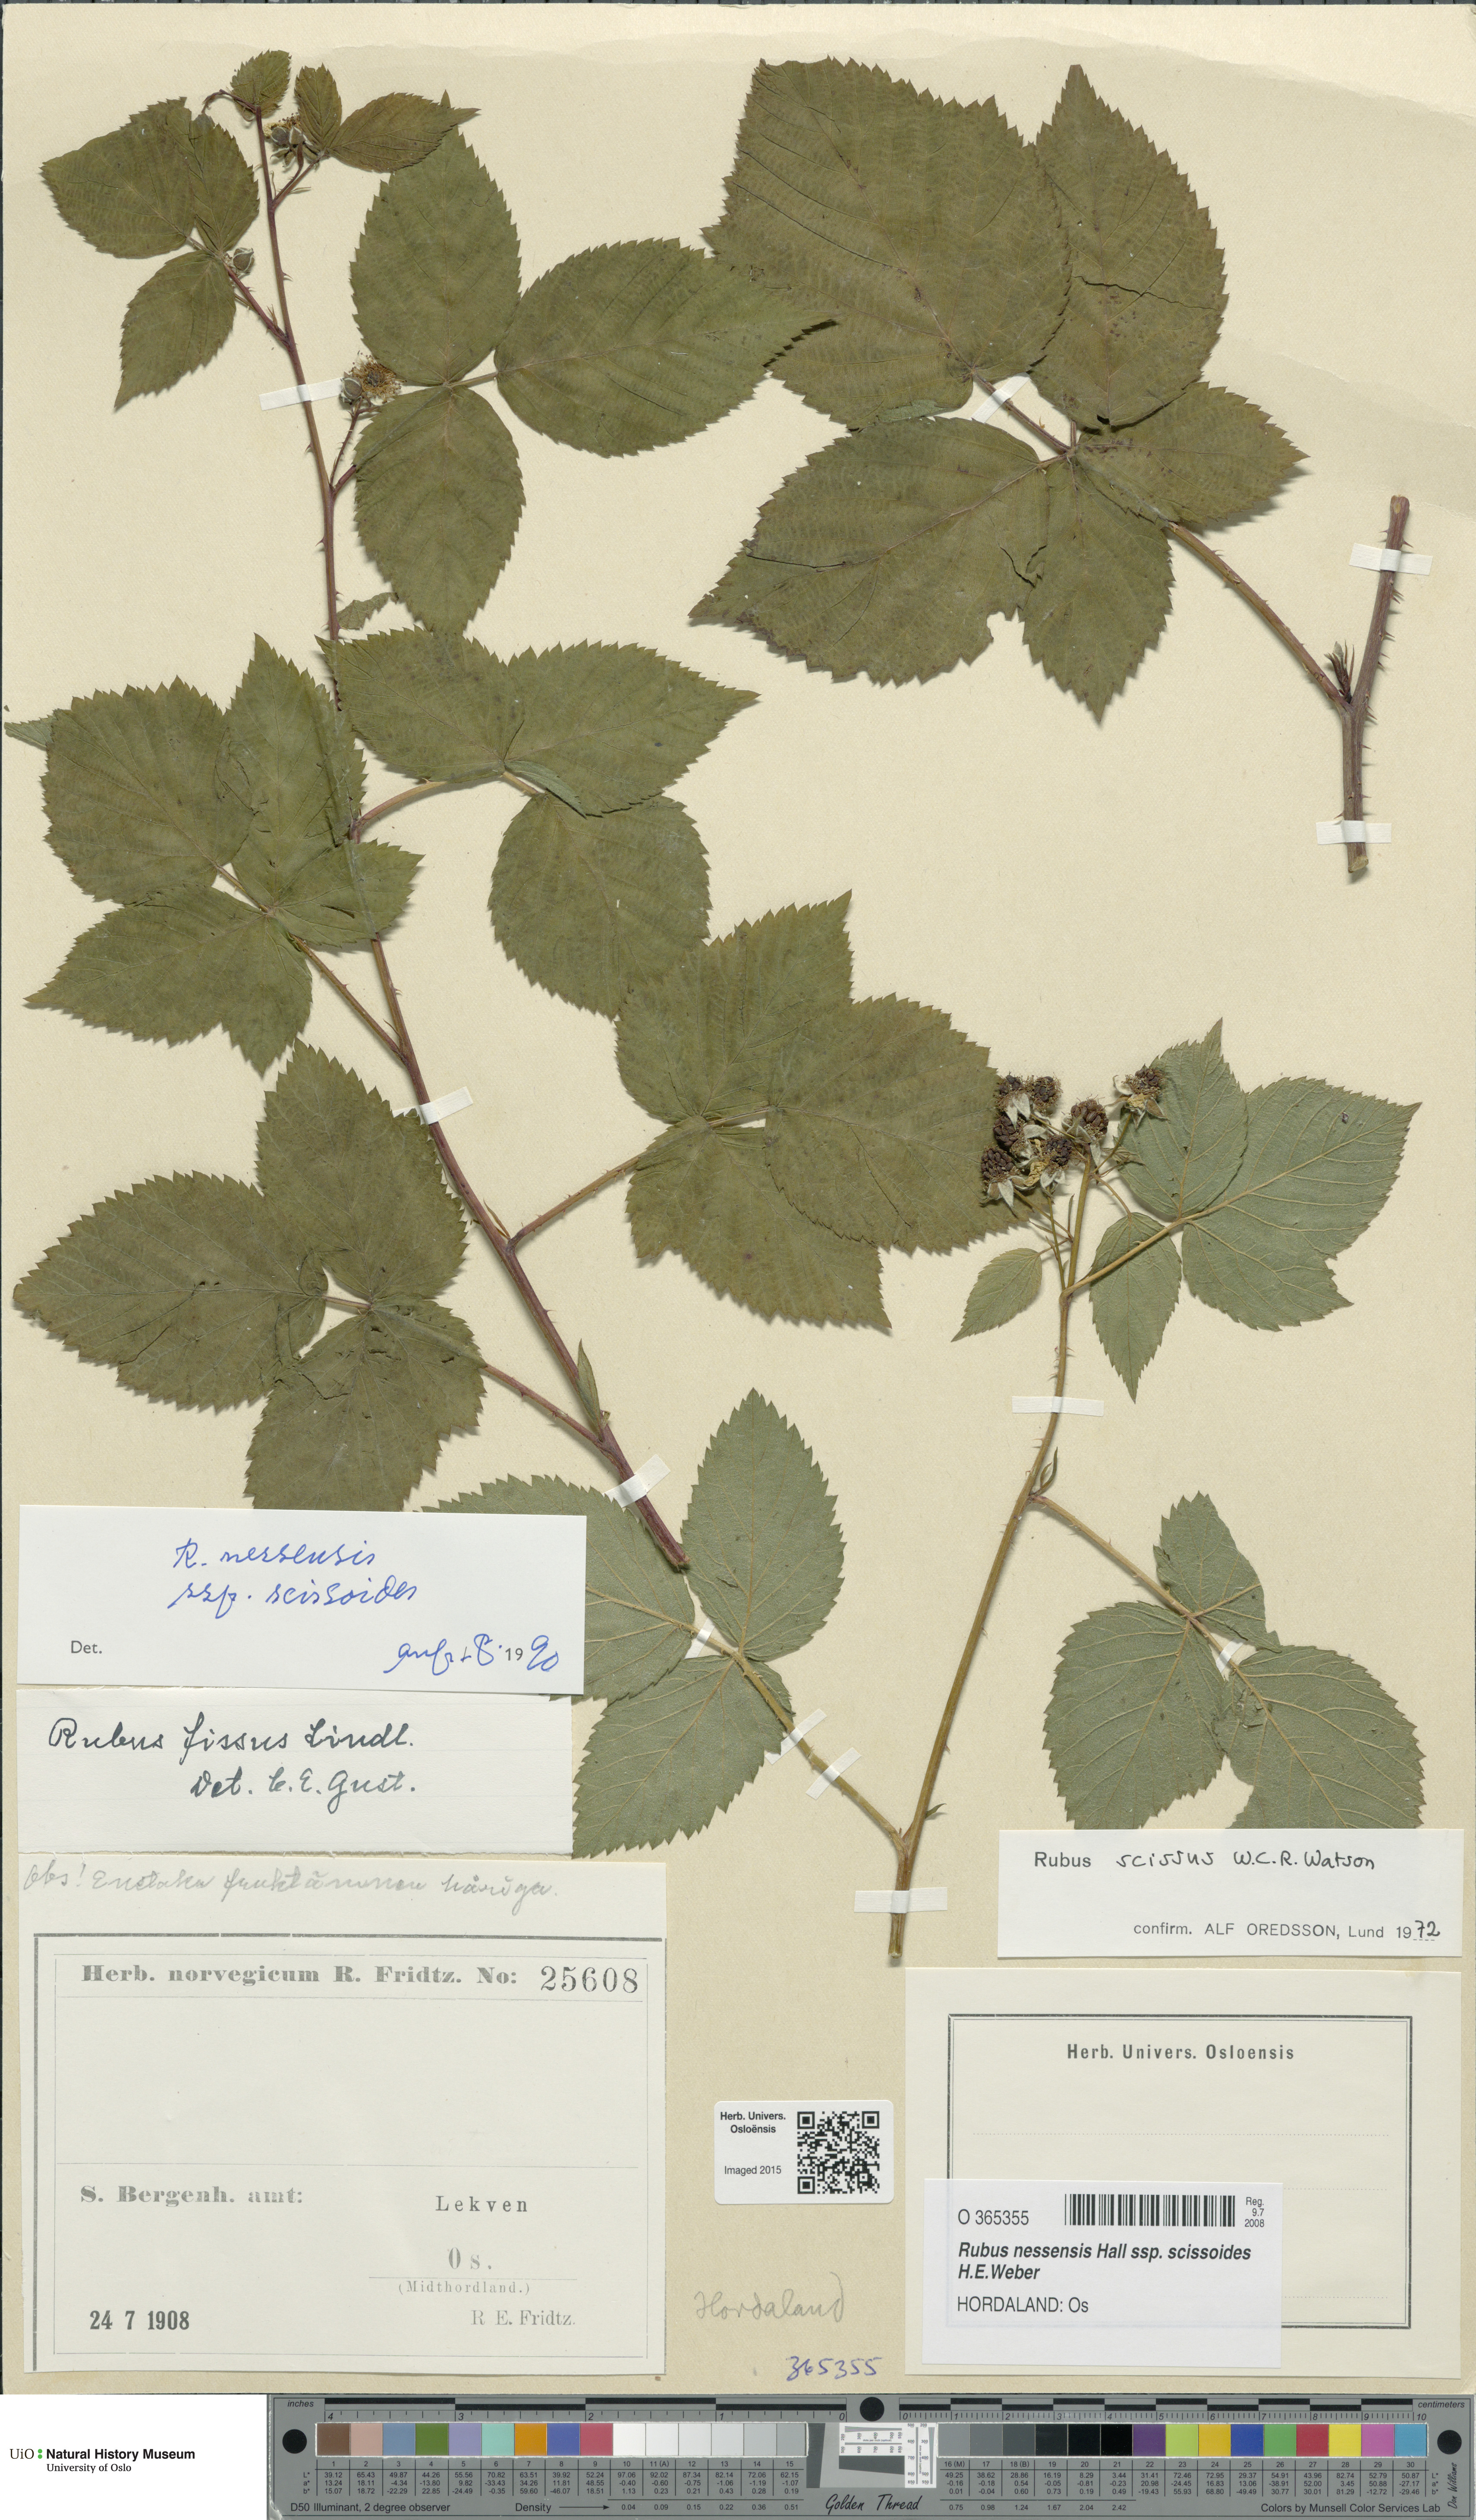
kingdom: Plantae
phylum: Tracheophyta
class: Magnoliopsida
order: Rosales
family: Rosaceae
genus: Rubus
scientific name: Rubus scissus
